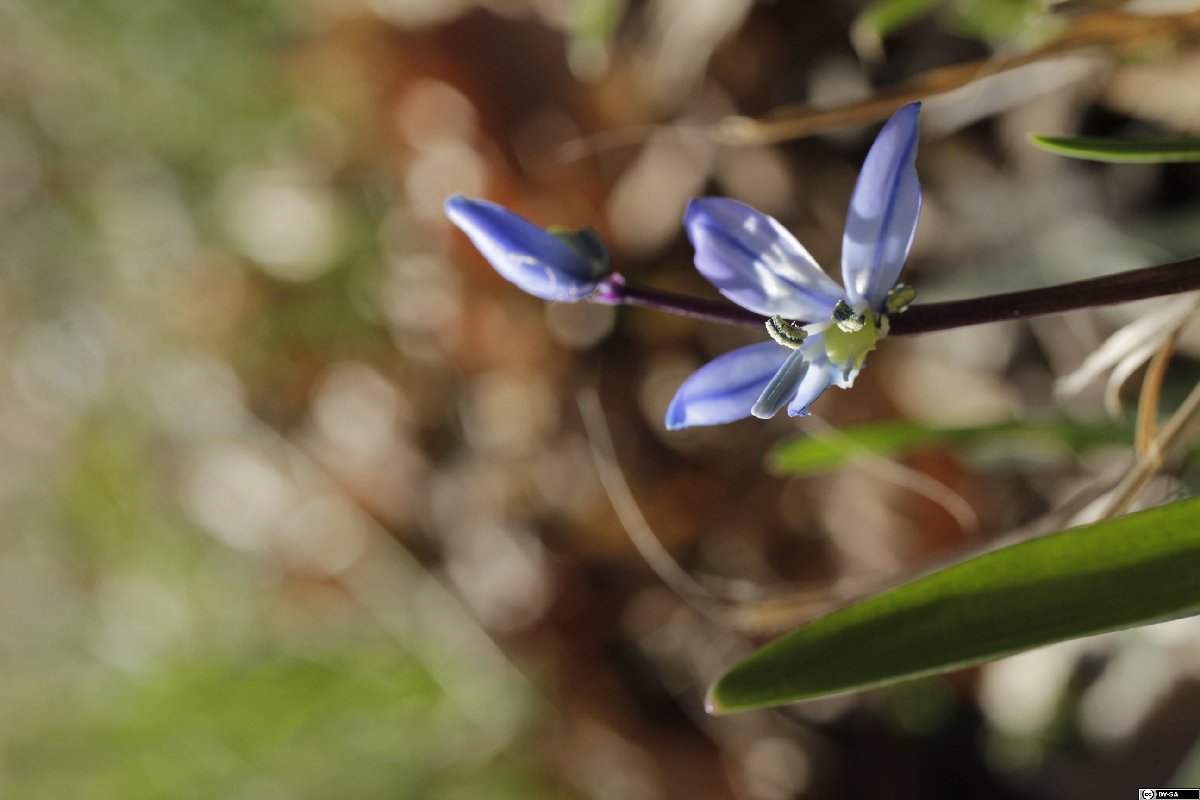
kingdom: Plantae
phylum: Tracheophyta
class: Liliopsida
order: Asparagales
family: Asparagaceae
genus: Scilla
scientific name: Scilla amoena
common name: Star-hyacinth
